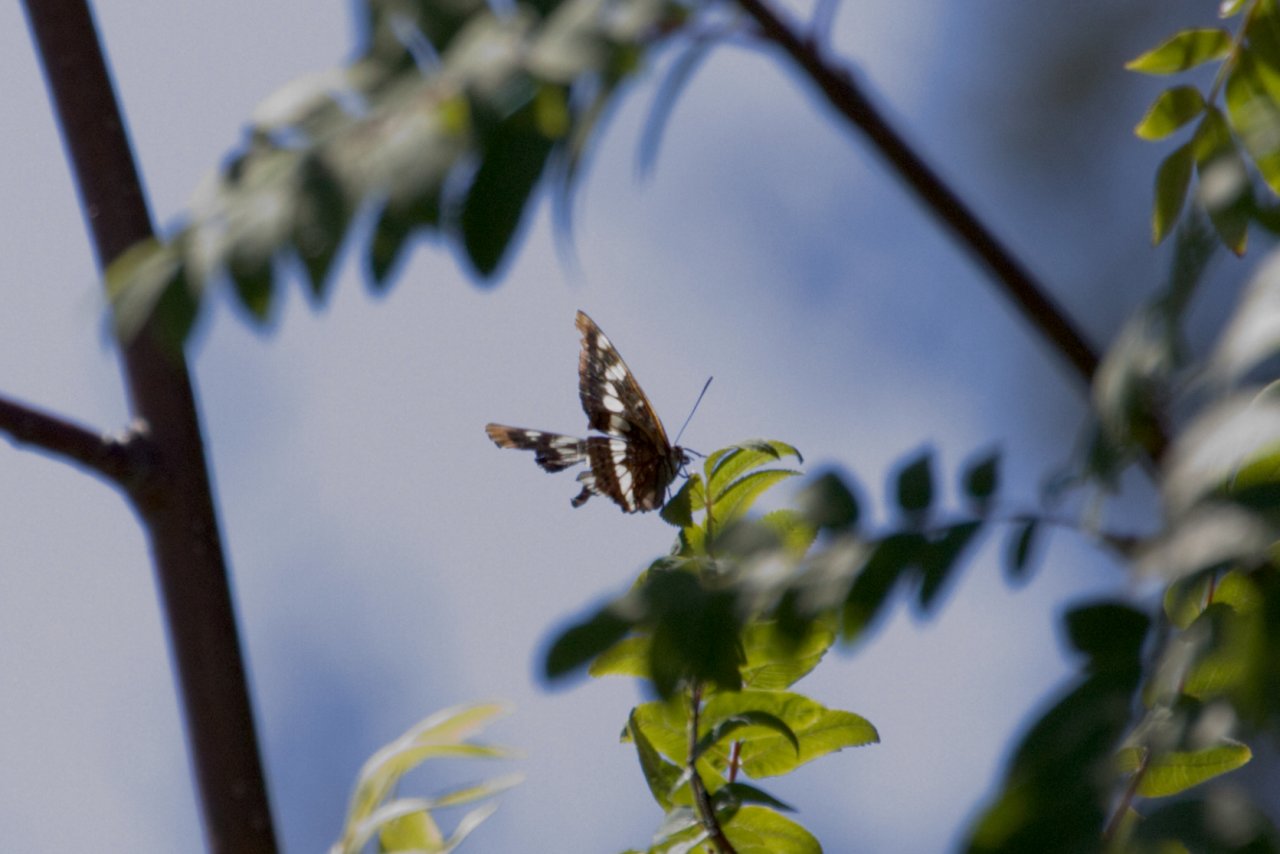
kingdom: Animalia
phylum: Arthropoda
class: Insecta
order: Lepidoptera
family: Nymphalidae
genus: Limenitis
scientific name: Limenitis lorquini
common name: Lorquin's Admiral
